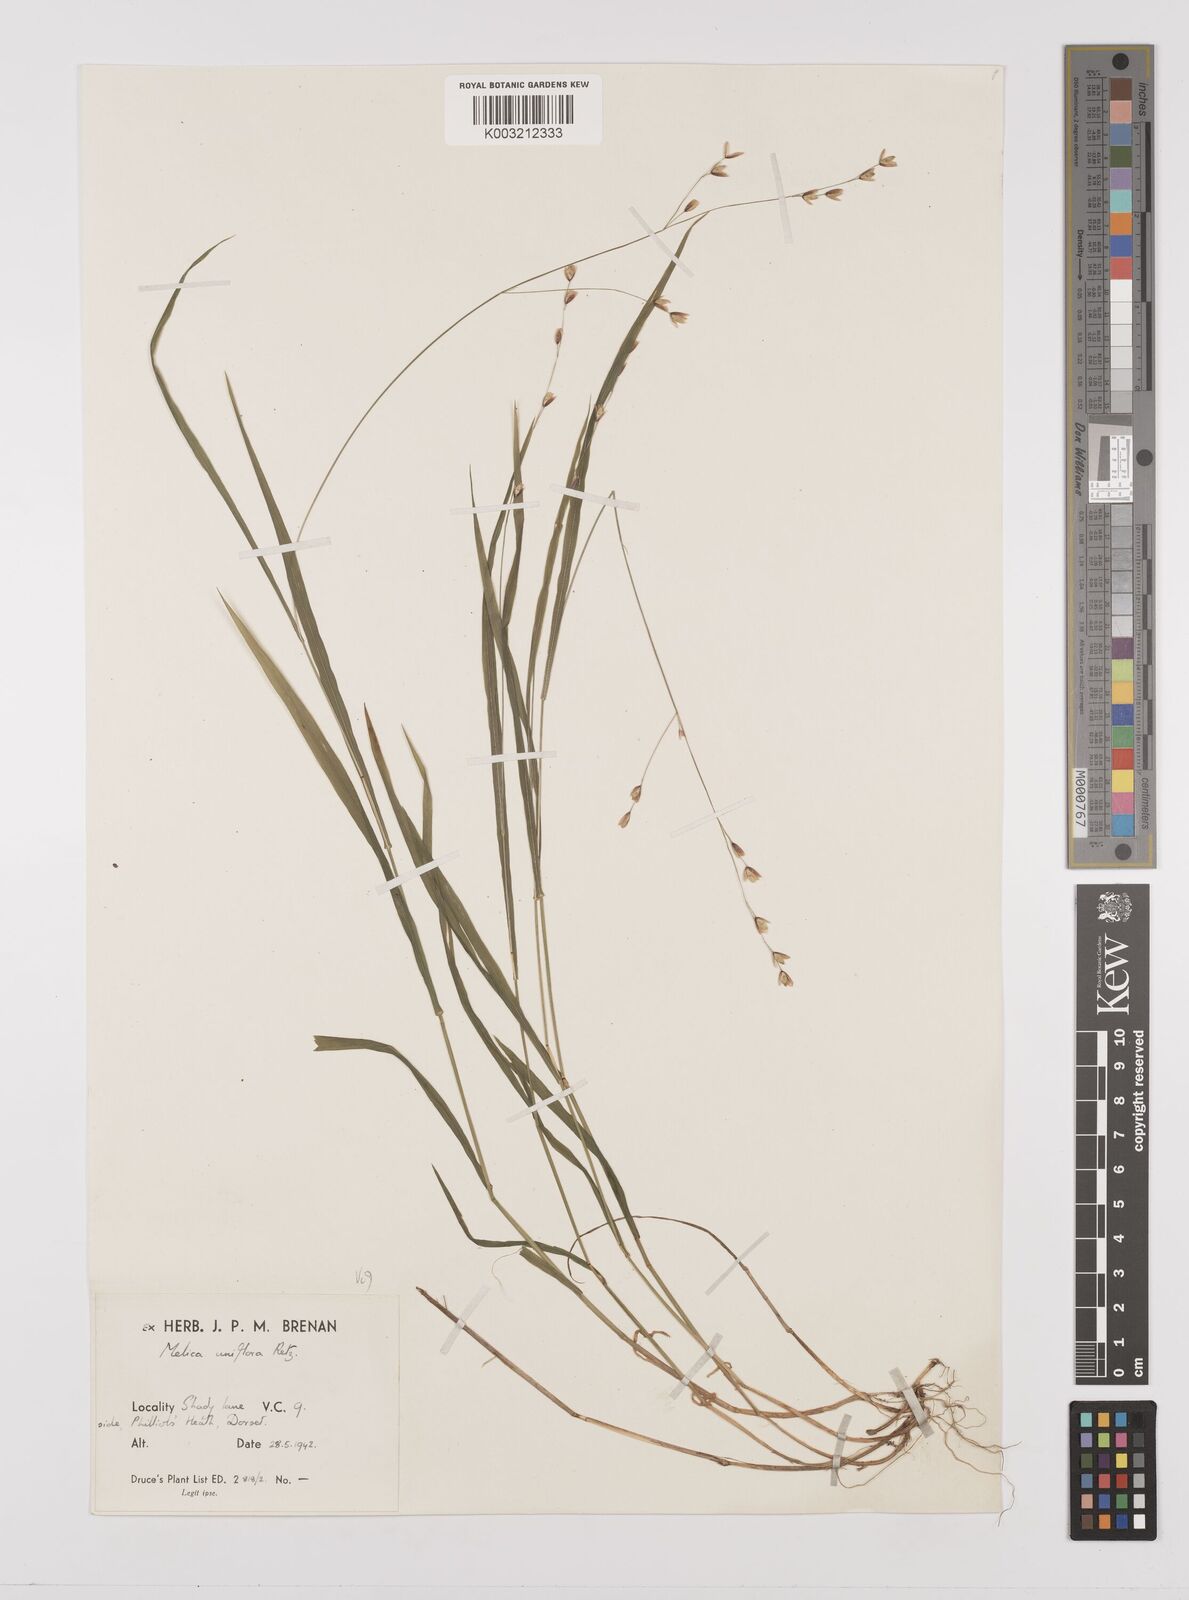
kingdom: Plantae
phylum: Tracheophyta
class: Liliopsida
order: Poales
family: Poaceae
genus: Melica
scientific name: Melica uniflora
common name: Wood melick
